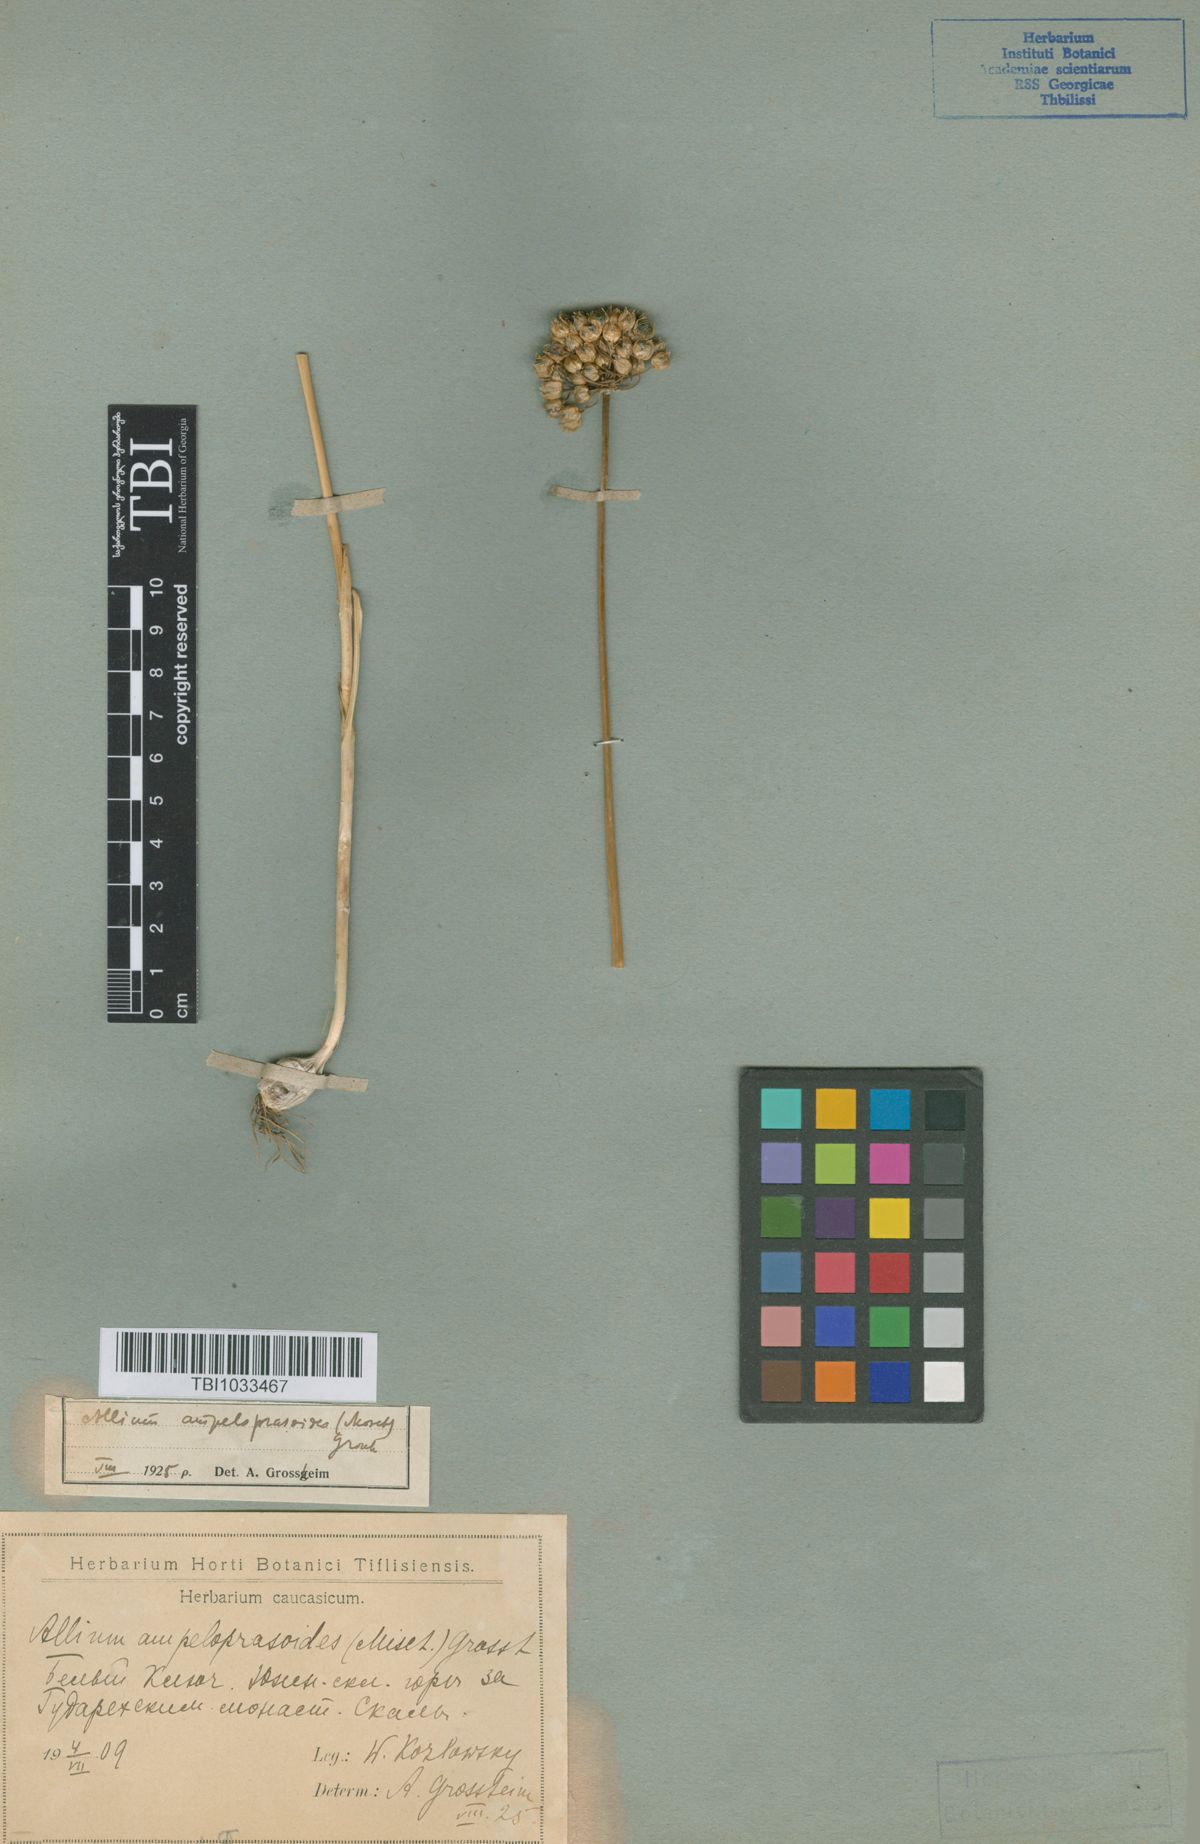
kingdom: Plantae
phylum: Tracheophyta
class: Liliopsida
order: Asparagales
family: Amaryllidaceae
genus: Allium
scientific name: Allium gramineum
